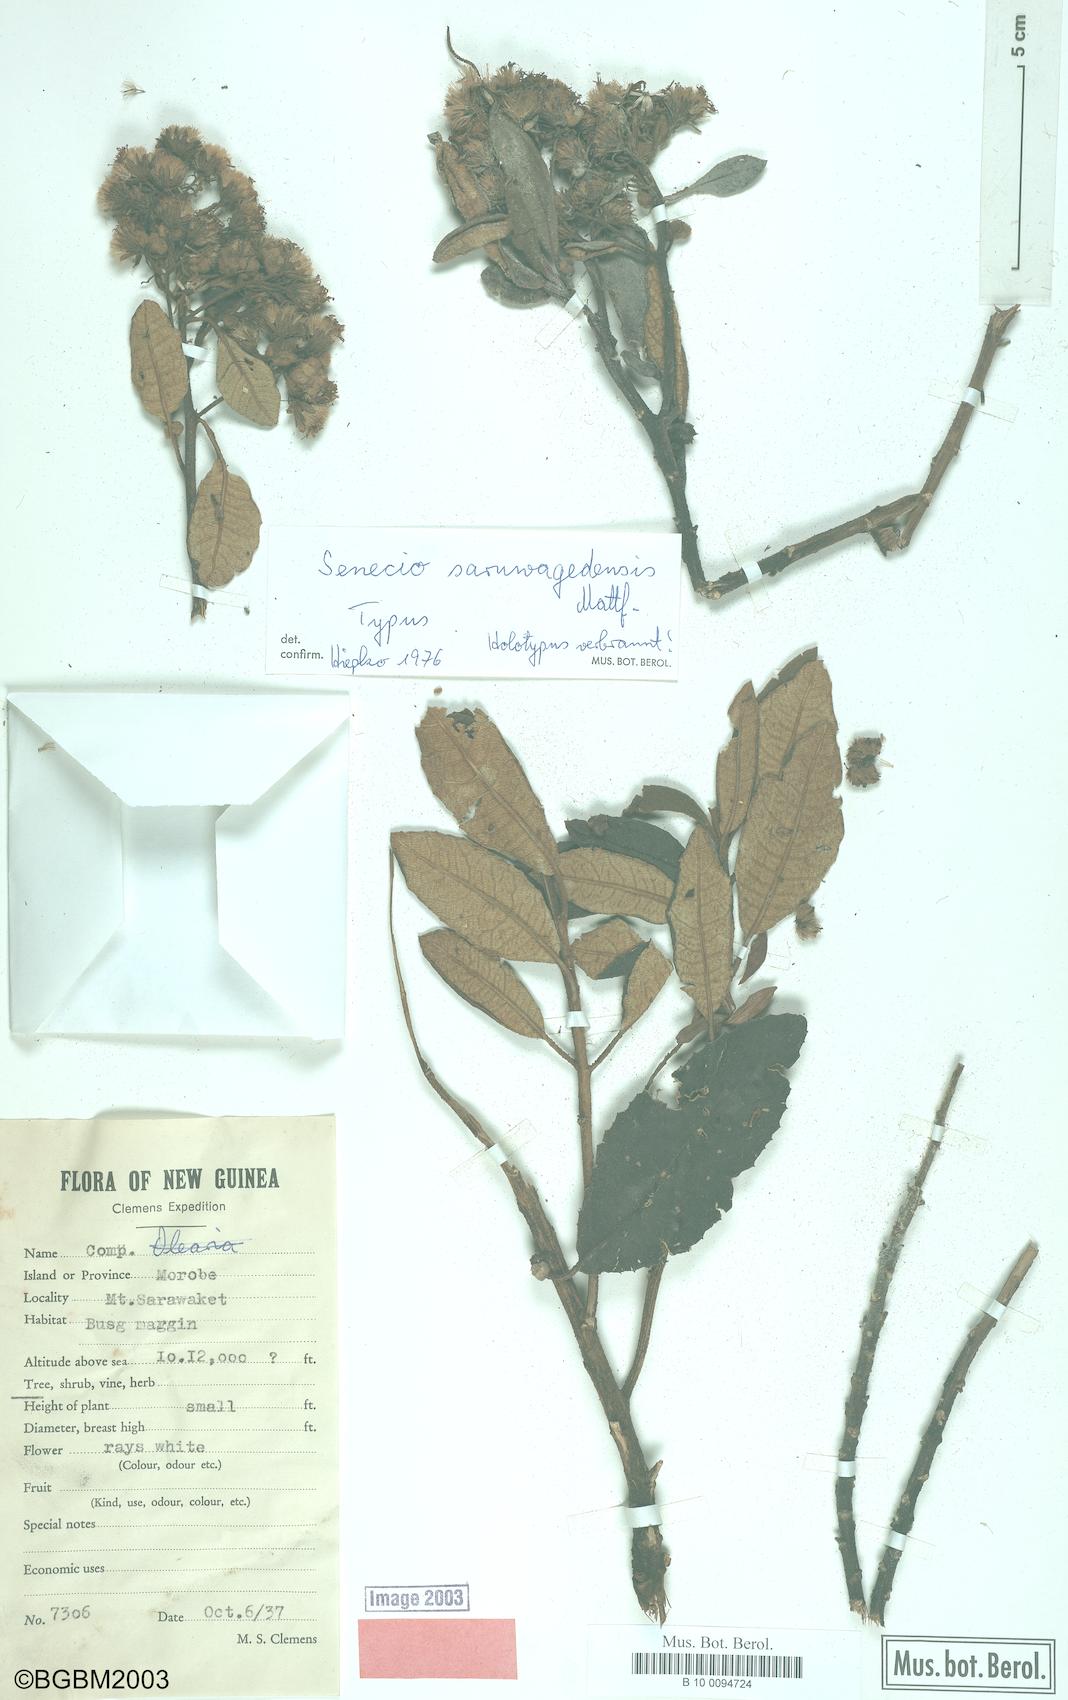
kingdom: Plantae
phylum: Tracheophyta
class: Magnoliopsida
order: Asterales
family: Asteraceae
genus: Papuacalia
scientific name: Papuacalia saruwagedensis
